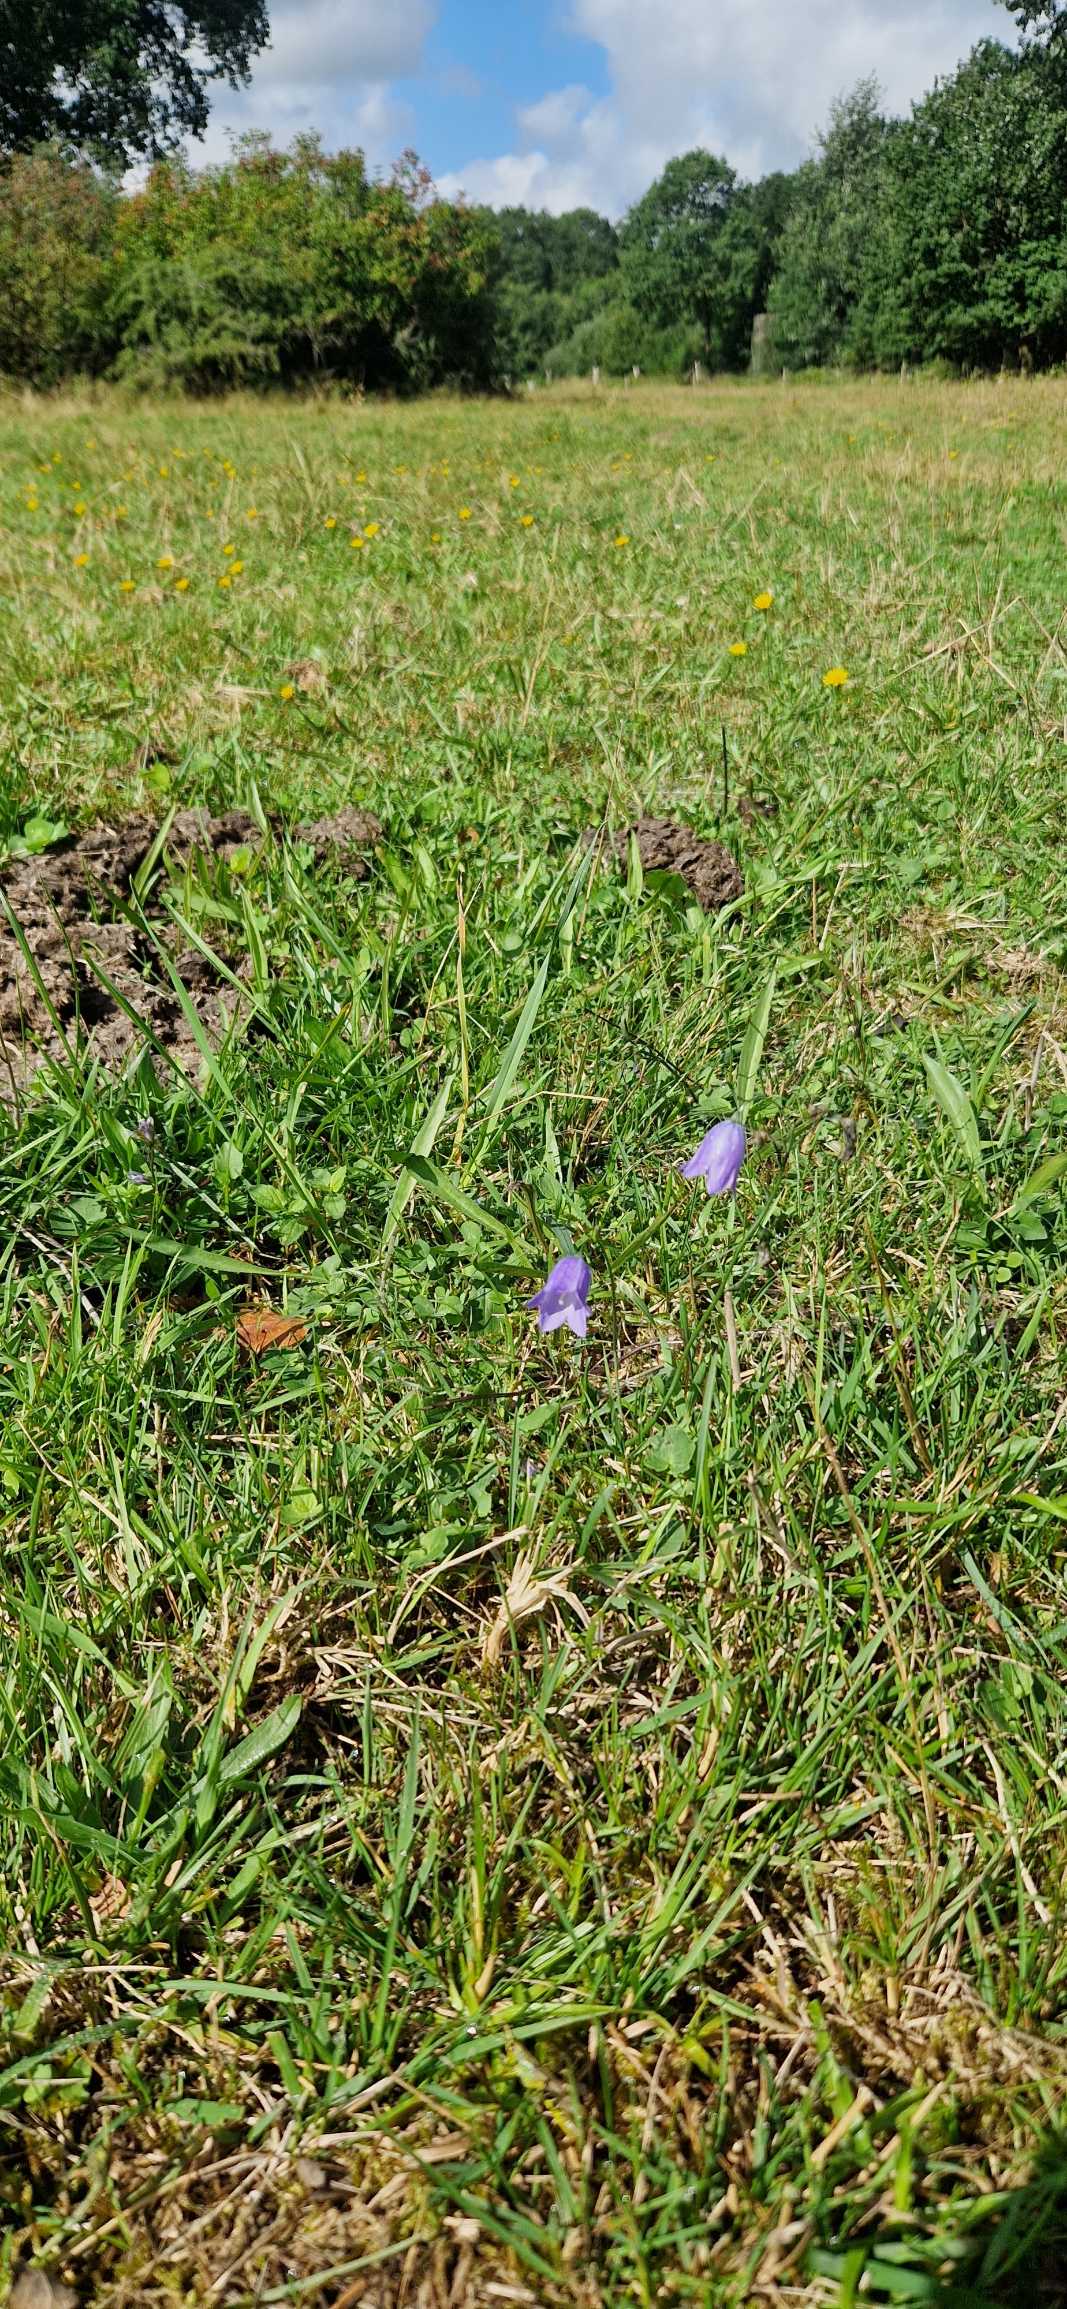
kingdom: Plantae
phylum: Tracheophyta
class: Magnoliopsida
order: Asterales
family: Campanulaceae
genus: Campanula
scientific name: Campanula rotundifolia
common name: Liden klokke
